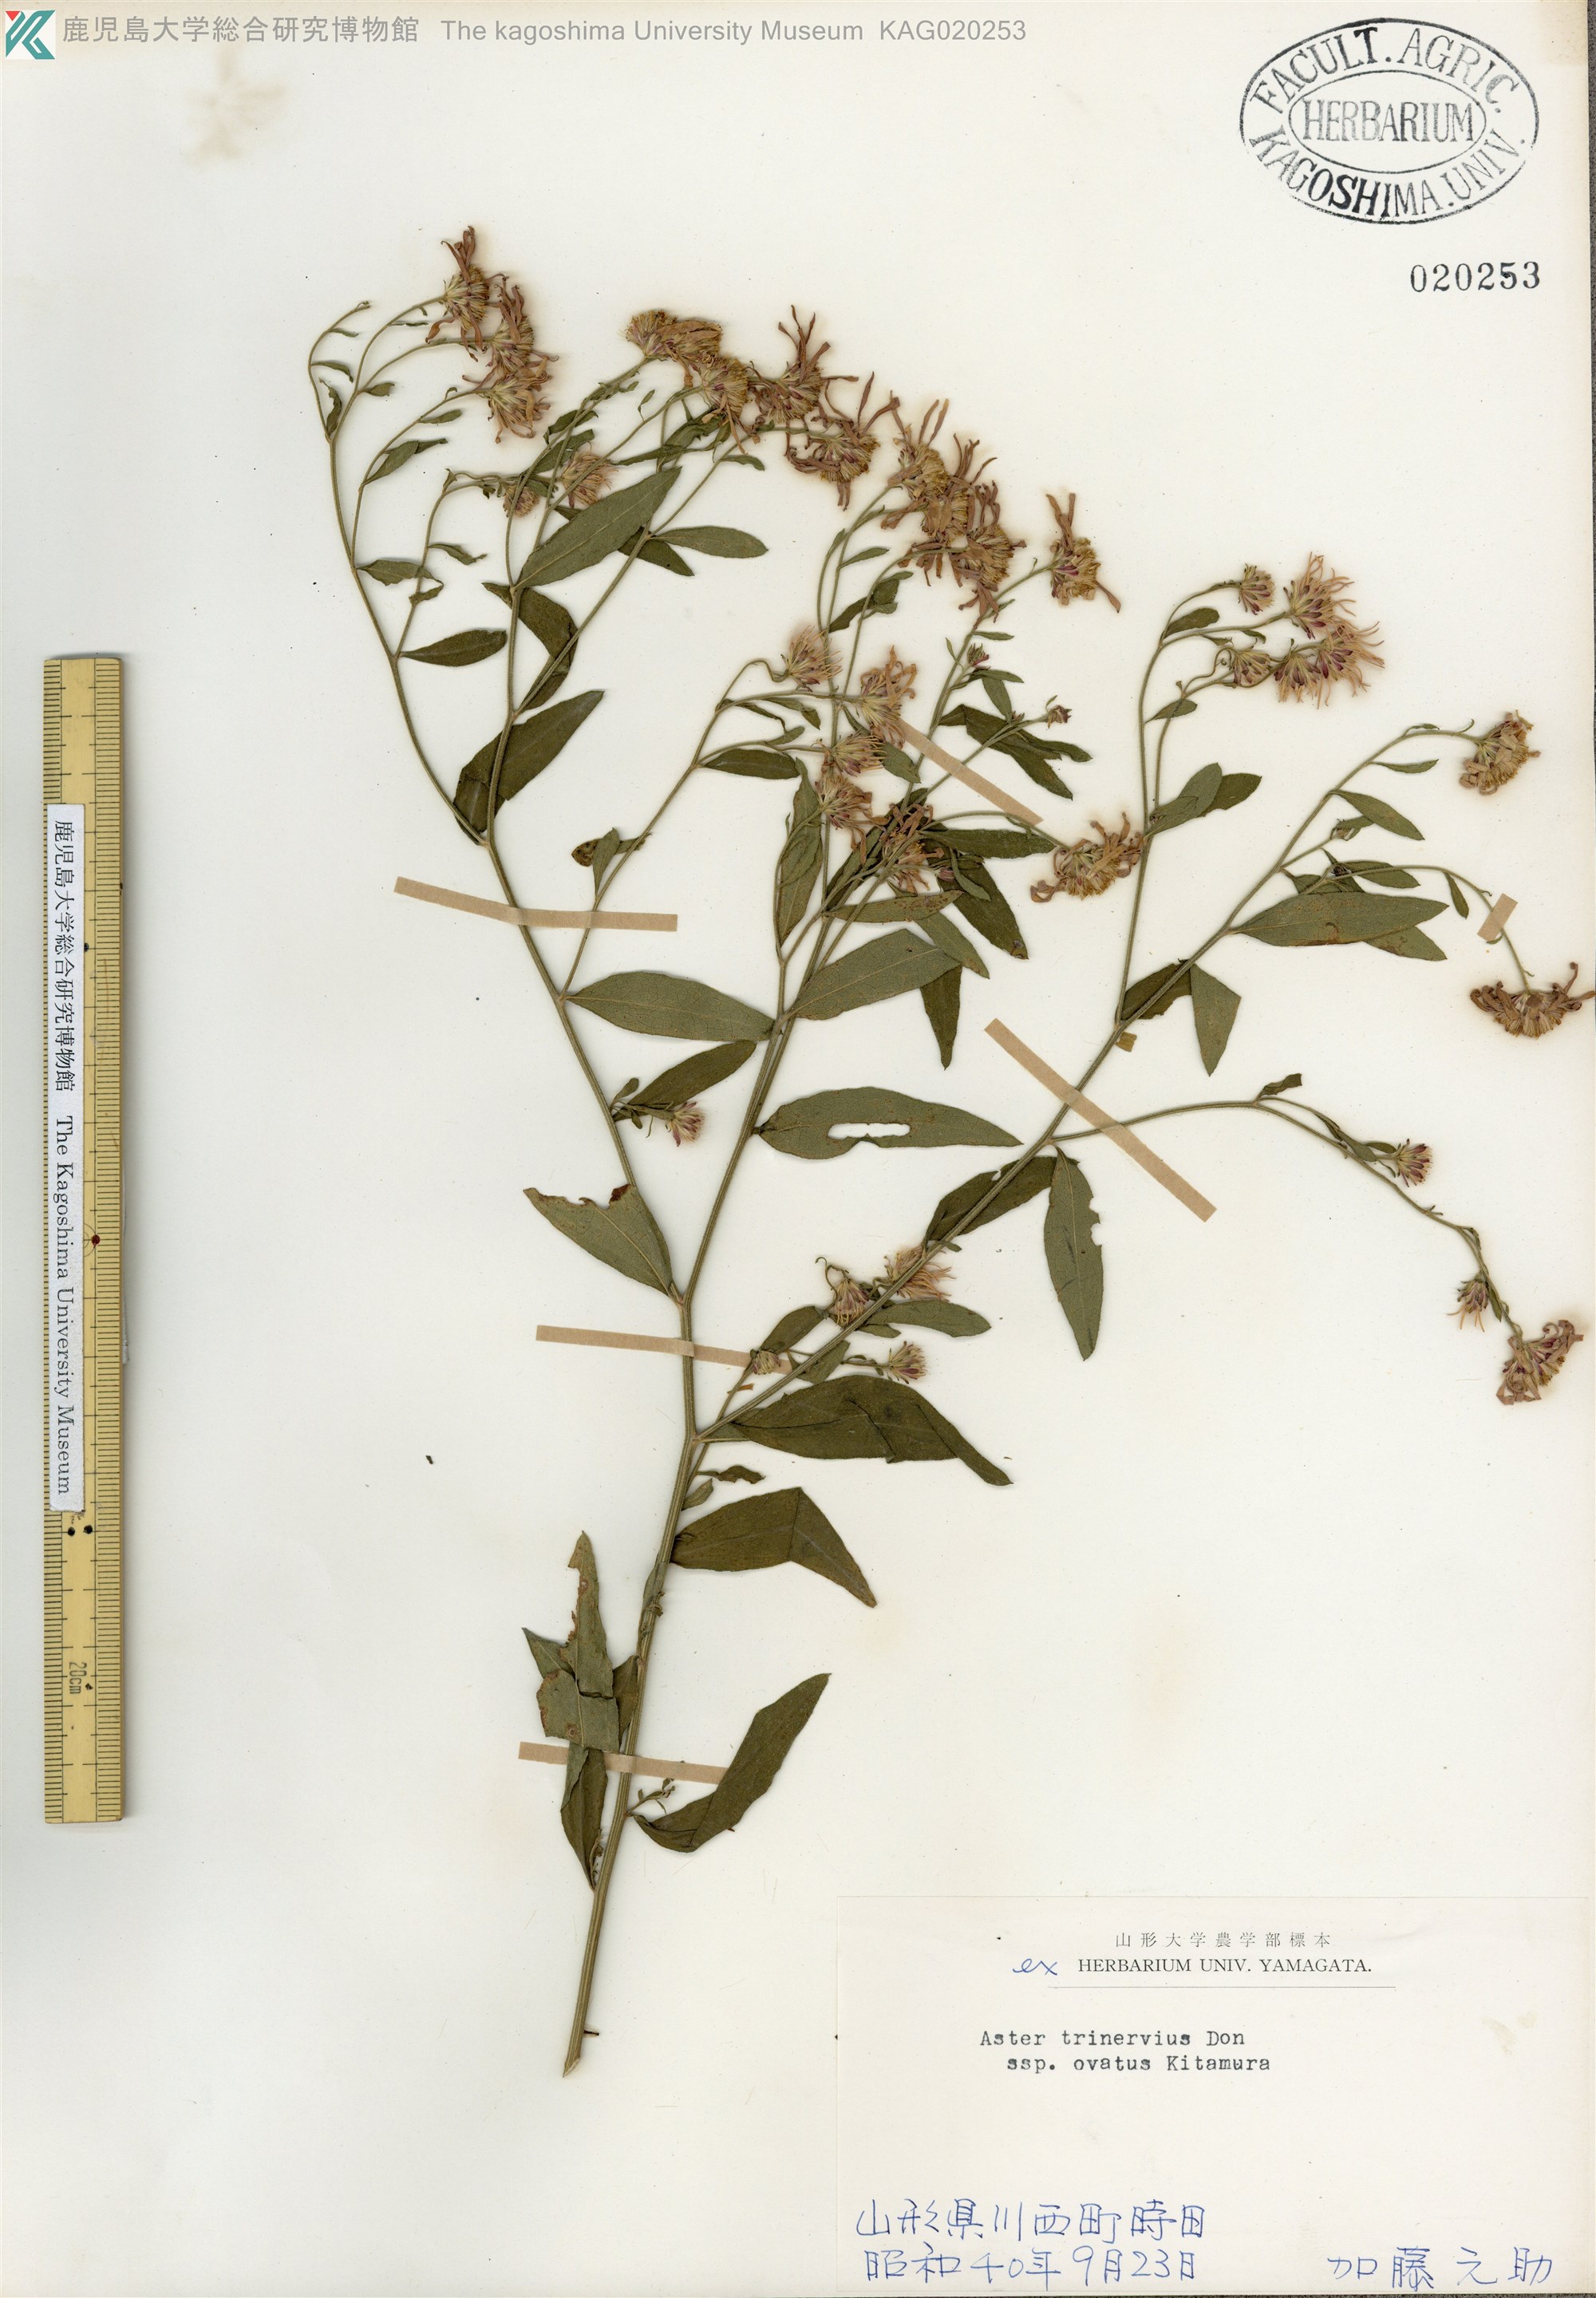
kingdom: Plantae
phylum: Tracheophyta
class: Magnoliopsida
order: Asterales
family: Asteraceae
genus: Aster
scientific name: Aster microcephalus
